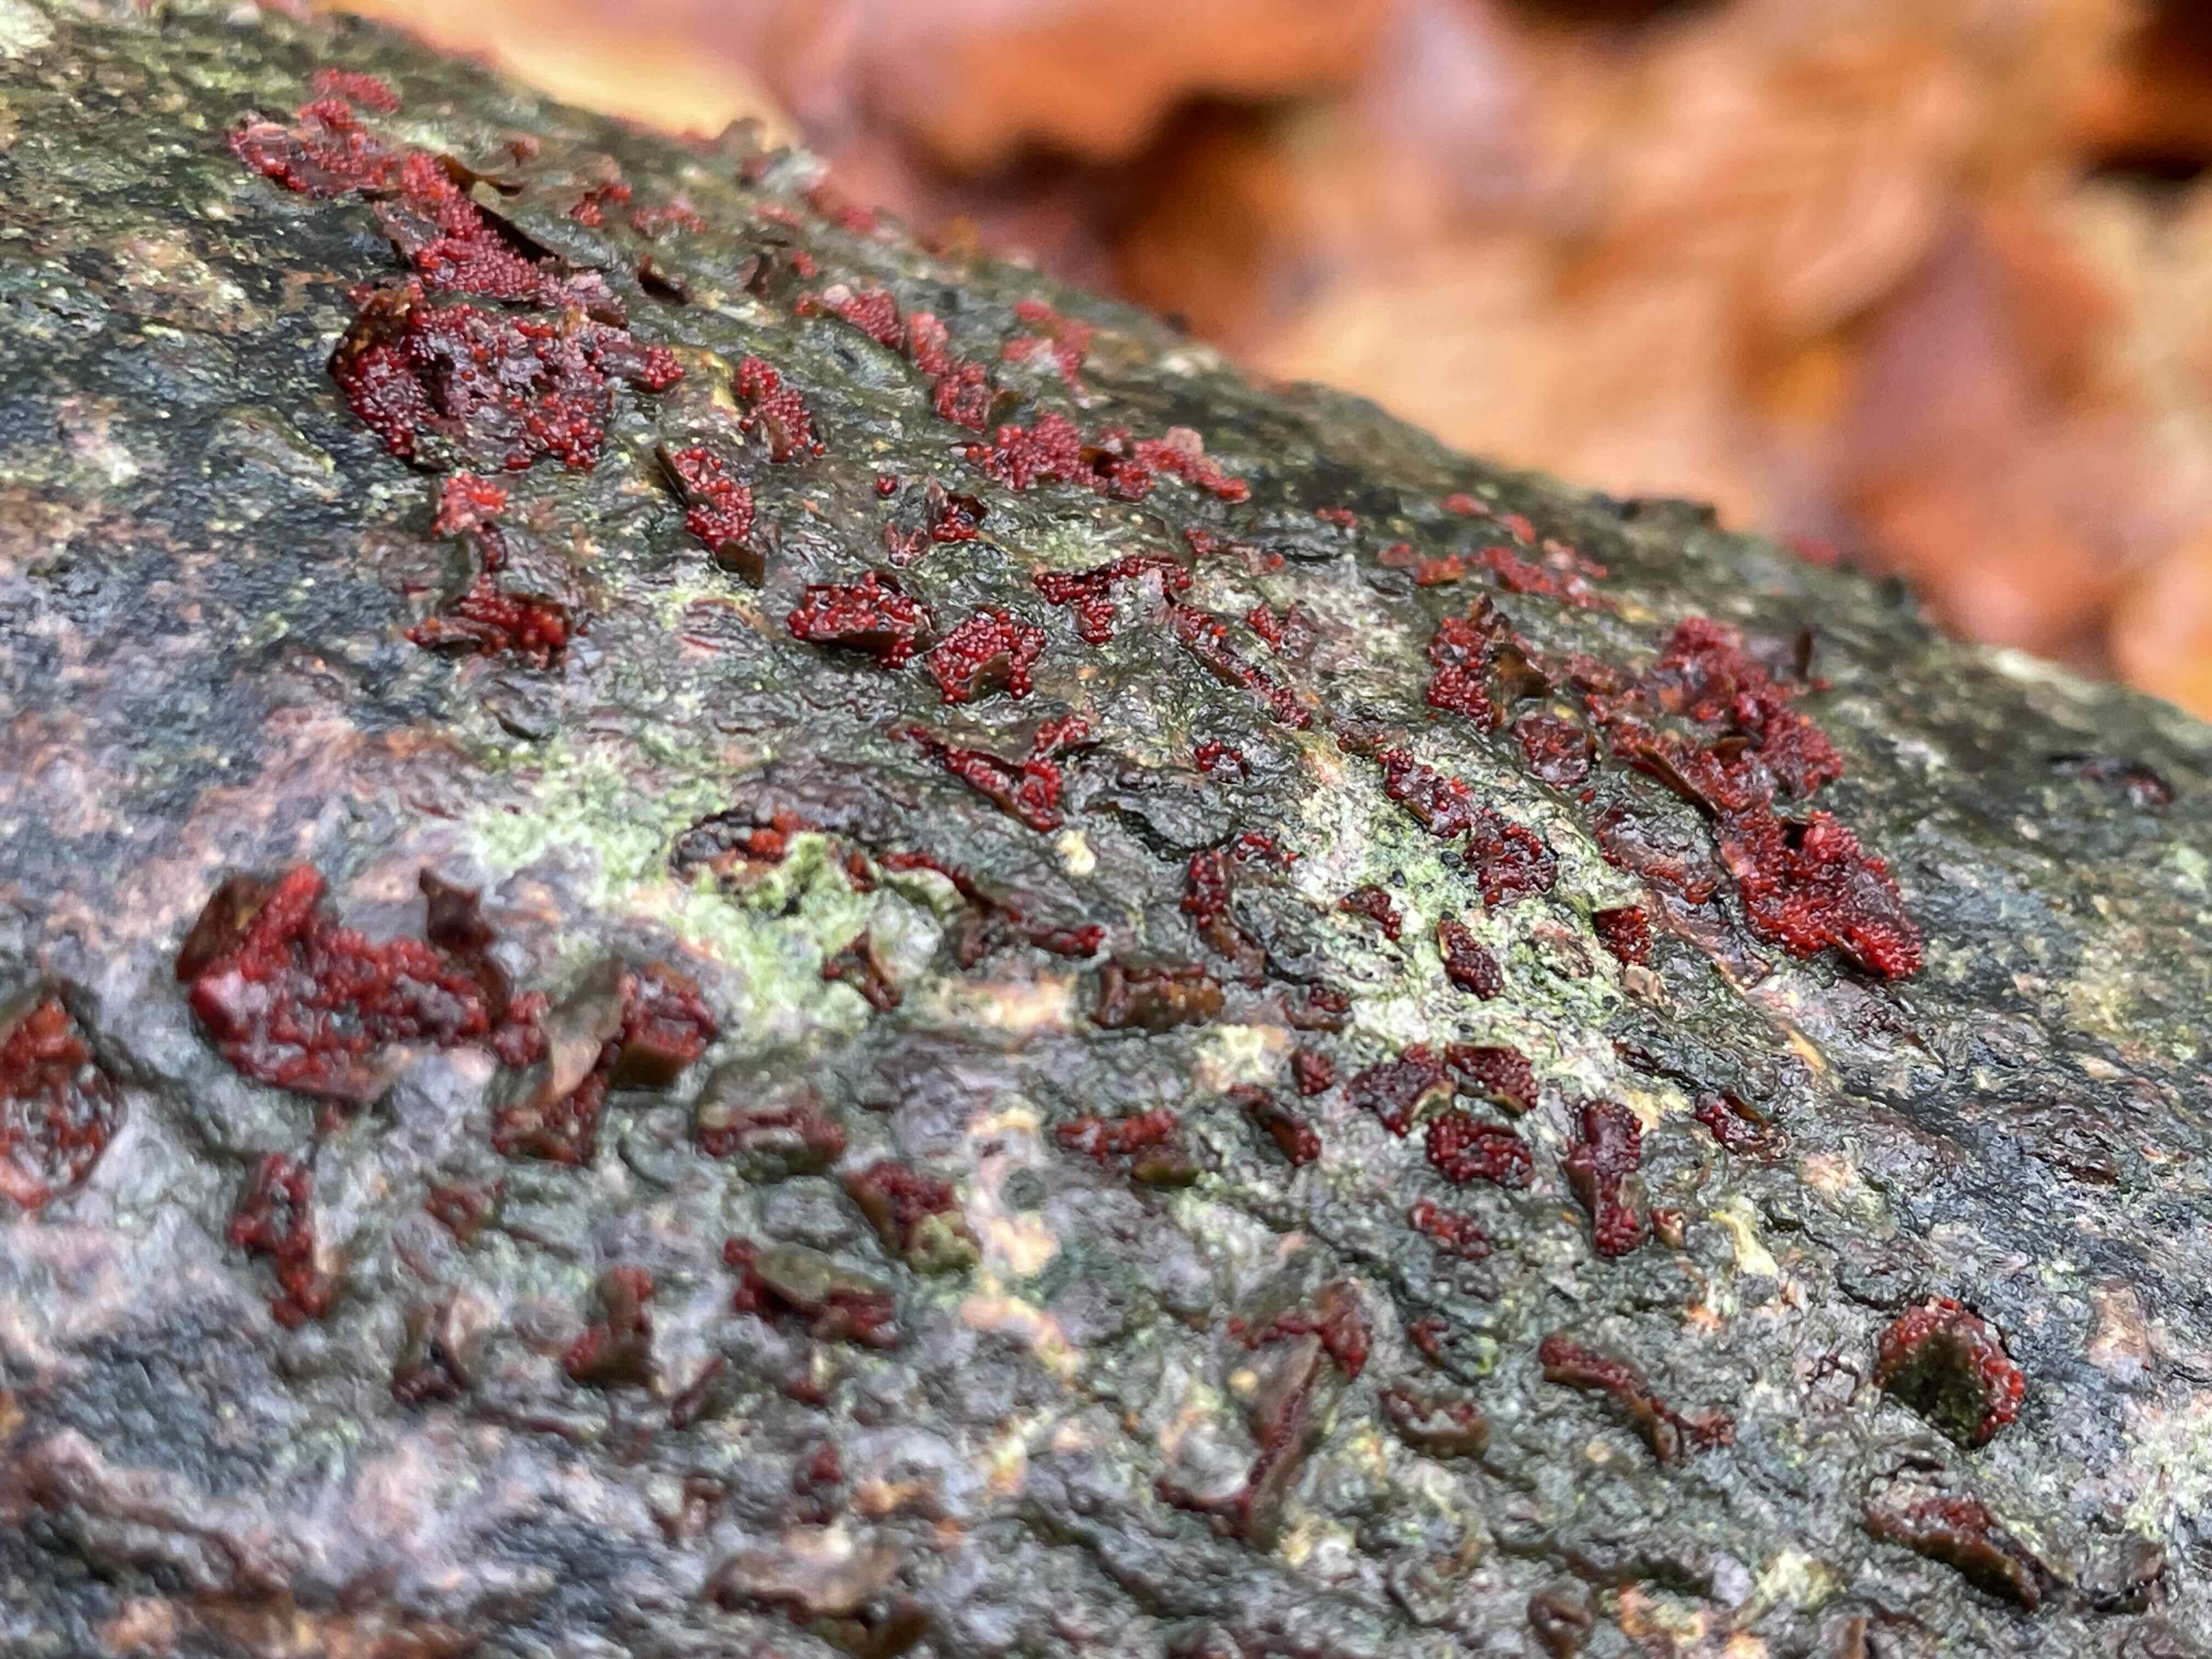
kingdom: Fungi
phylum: Ascomycota
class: Sordariomycetes
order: Hypocreales
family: Nectriaceae
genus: Neonectria
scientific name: Neonectria coccinea
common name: bøgebark-cinnobersvamp
